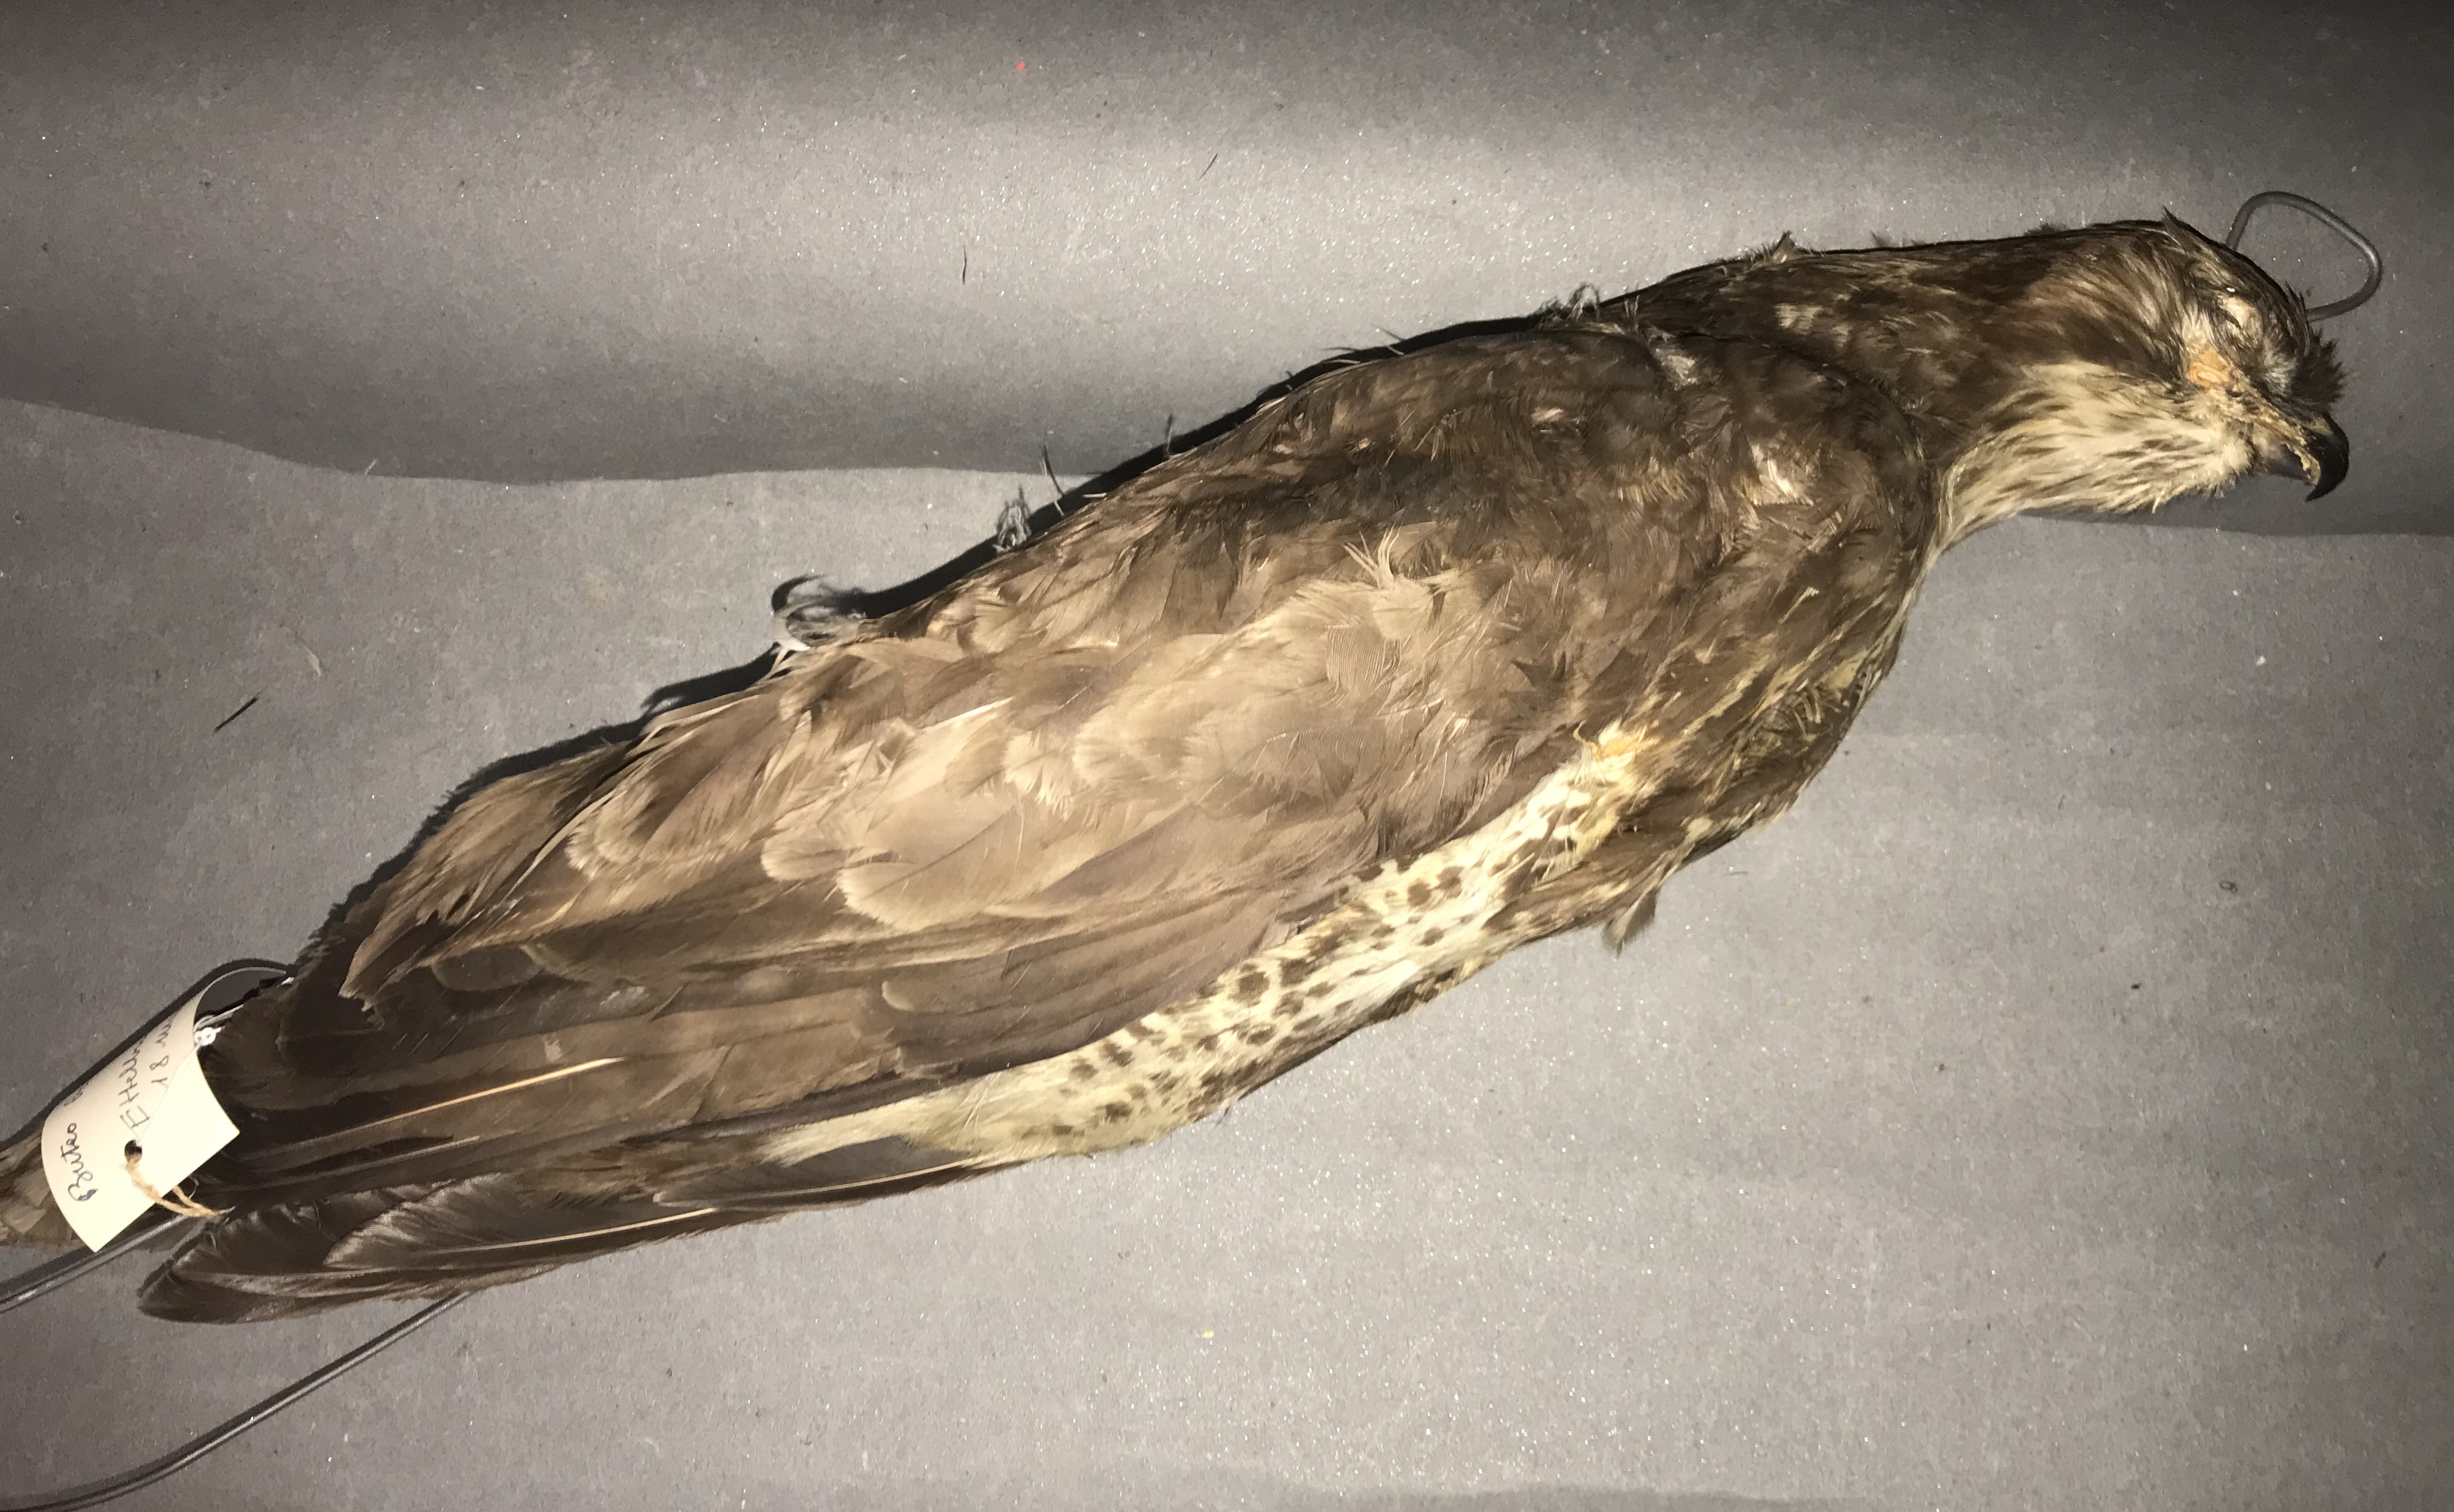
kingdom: Animalia
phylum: Chordata
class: Aves
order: Accipitriformes
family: Accipitridae
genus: Buteo
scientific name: Buteo buteo
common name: Common buzzard
